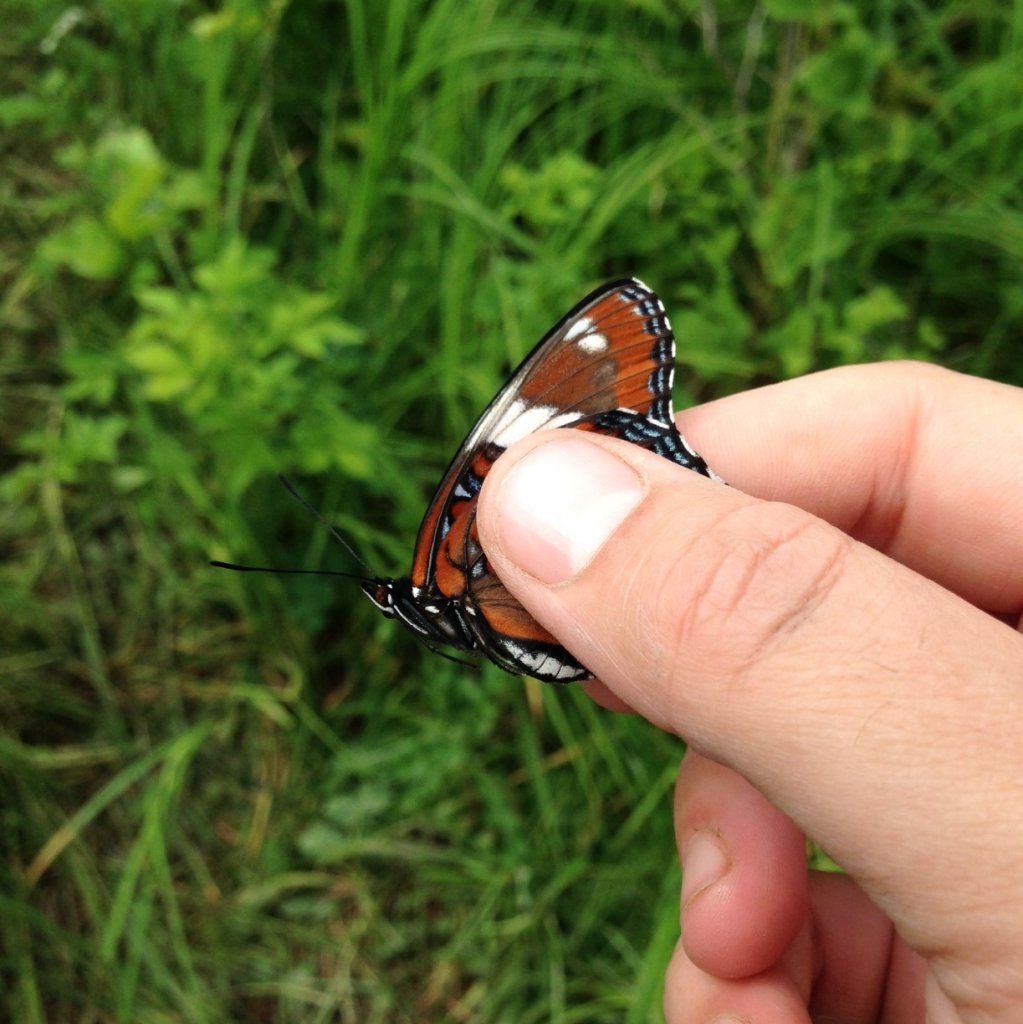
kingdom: Animalia
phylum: Arthropoda
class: Insecta
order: Lepidoptera
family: Nymphalidae
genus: Limenitis
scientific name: Limenitis arthemis
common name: Red-spotted Admiral
